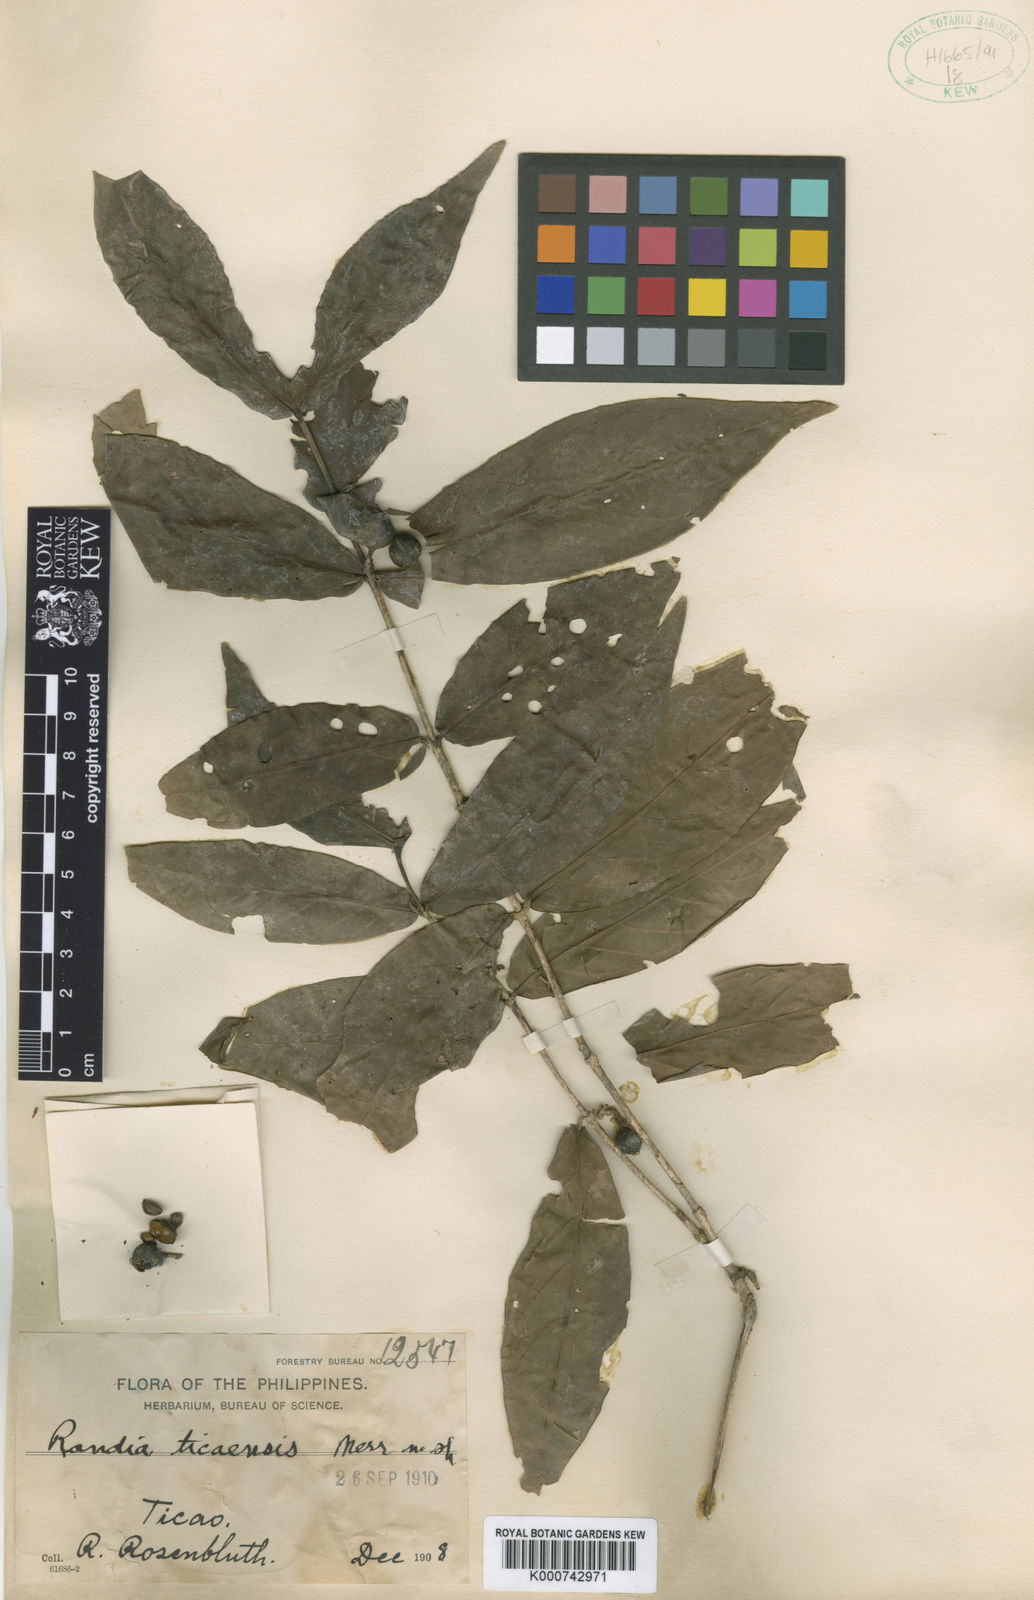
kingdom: Plantae
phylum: Tracheophyta
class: Magnoliopsida
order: Gentianales
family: Rubiaceae
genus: Benkara
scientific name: Benkara microcarpa
